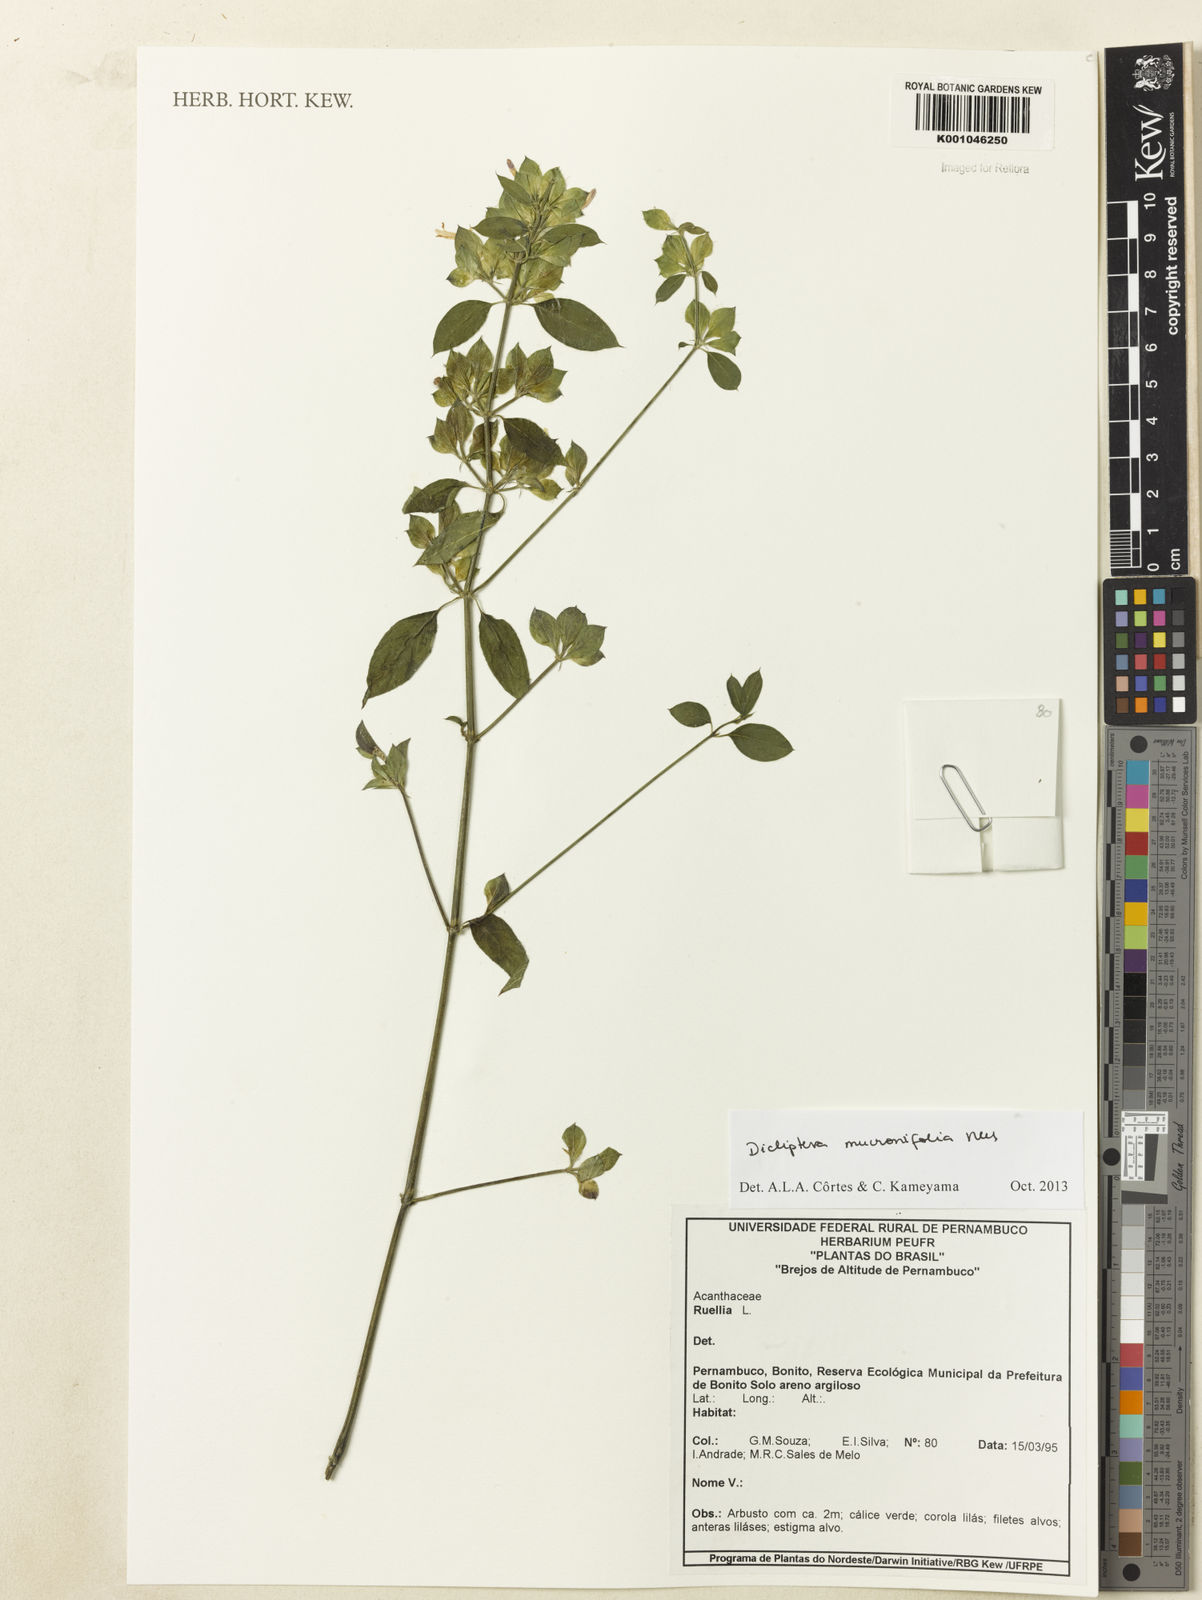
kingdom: Plantae
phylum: Tracheophyta
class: Magnoliopsida
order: Lamiales
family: Acanthaceae
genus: Dicliptera
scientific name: Dicliptera mucronifolia
